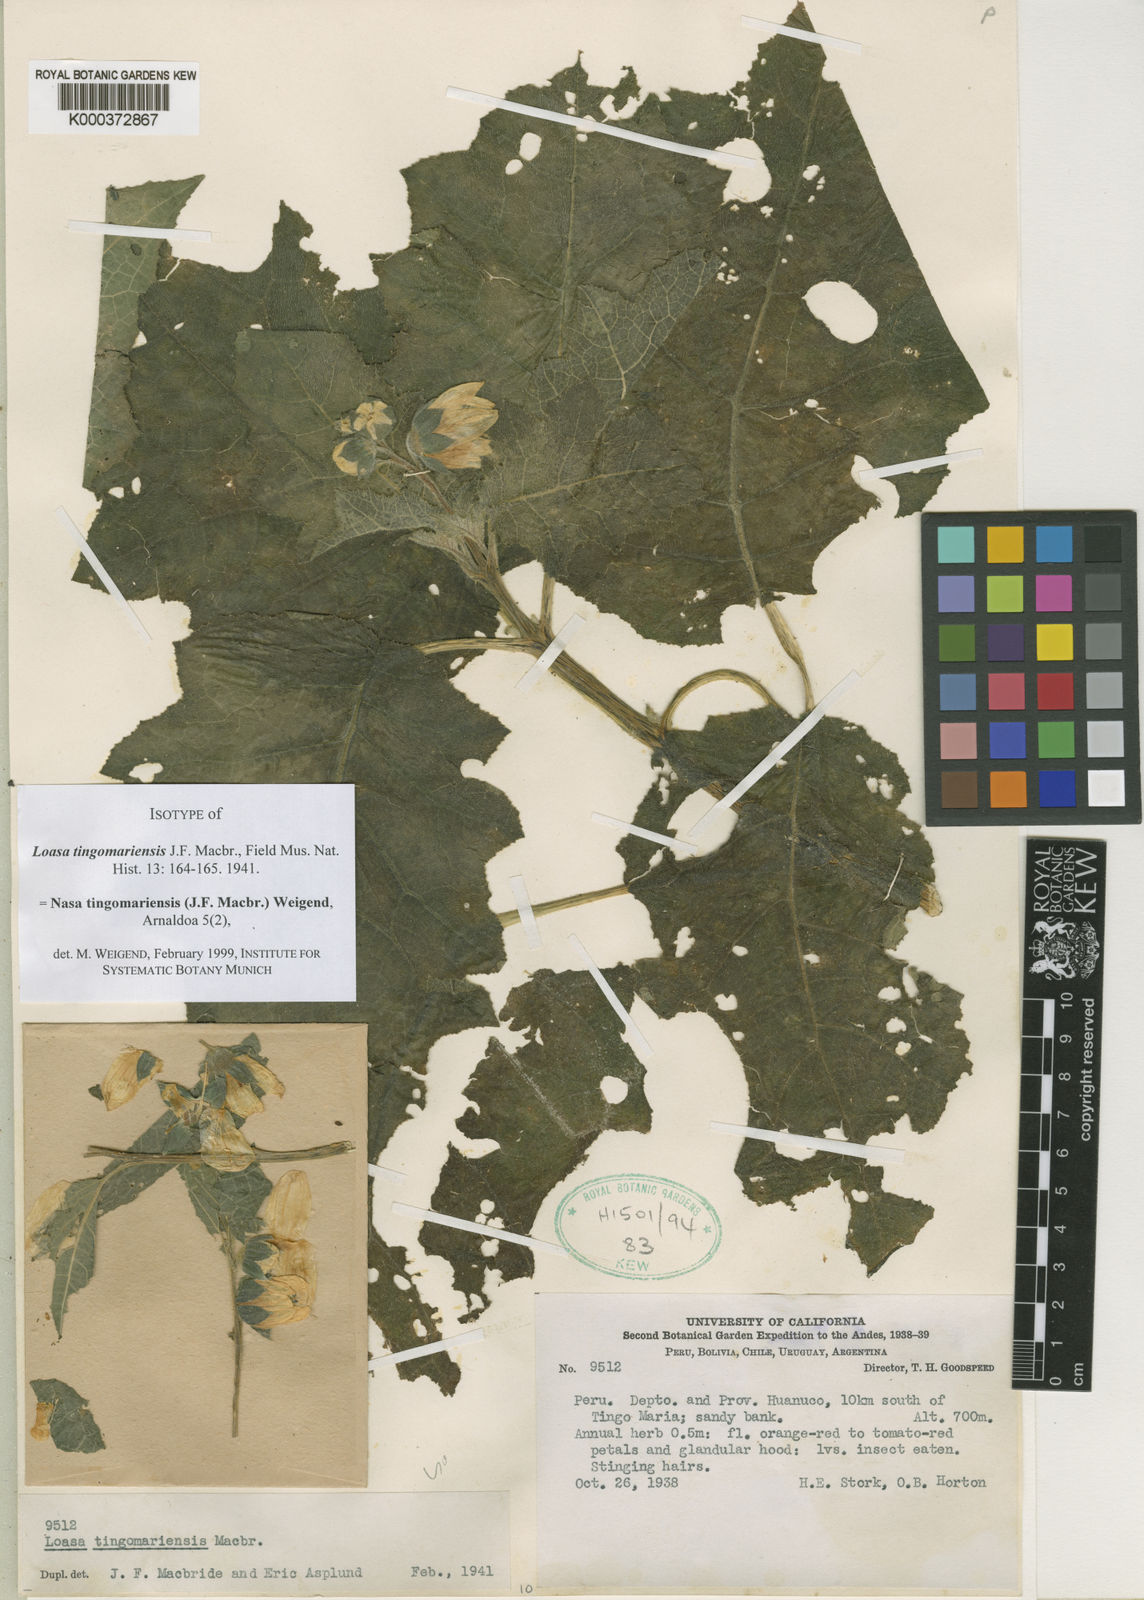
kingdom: Plantae
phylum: Tracheophyta
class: Magnoliopsida
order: Cornales
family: Loasaceae
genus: Nasa
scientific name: Nasa tingomariensis
